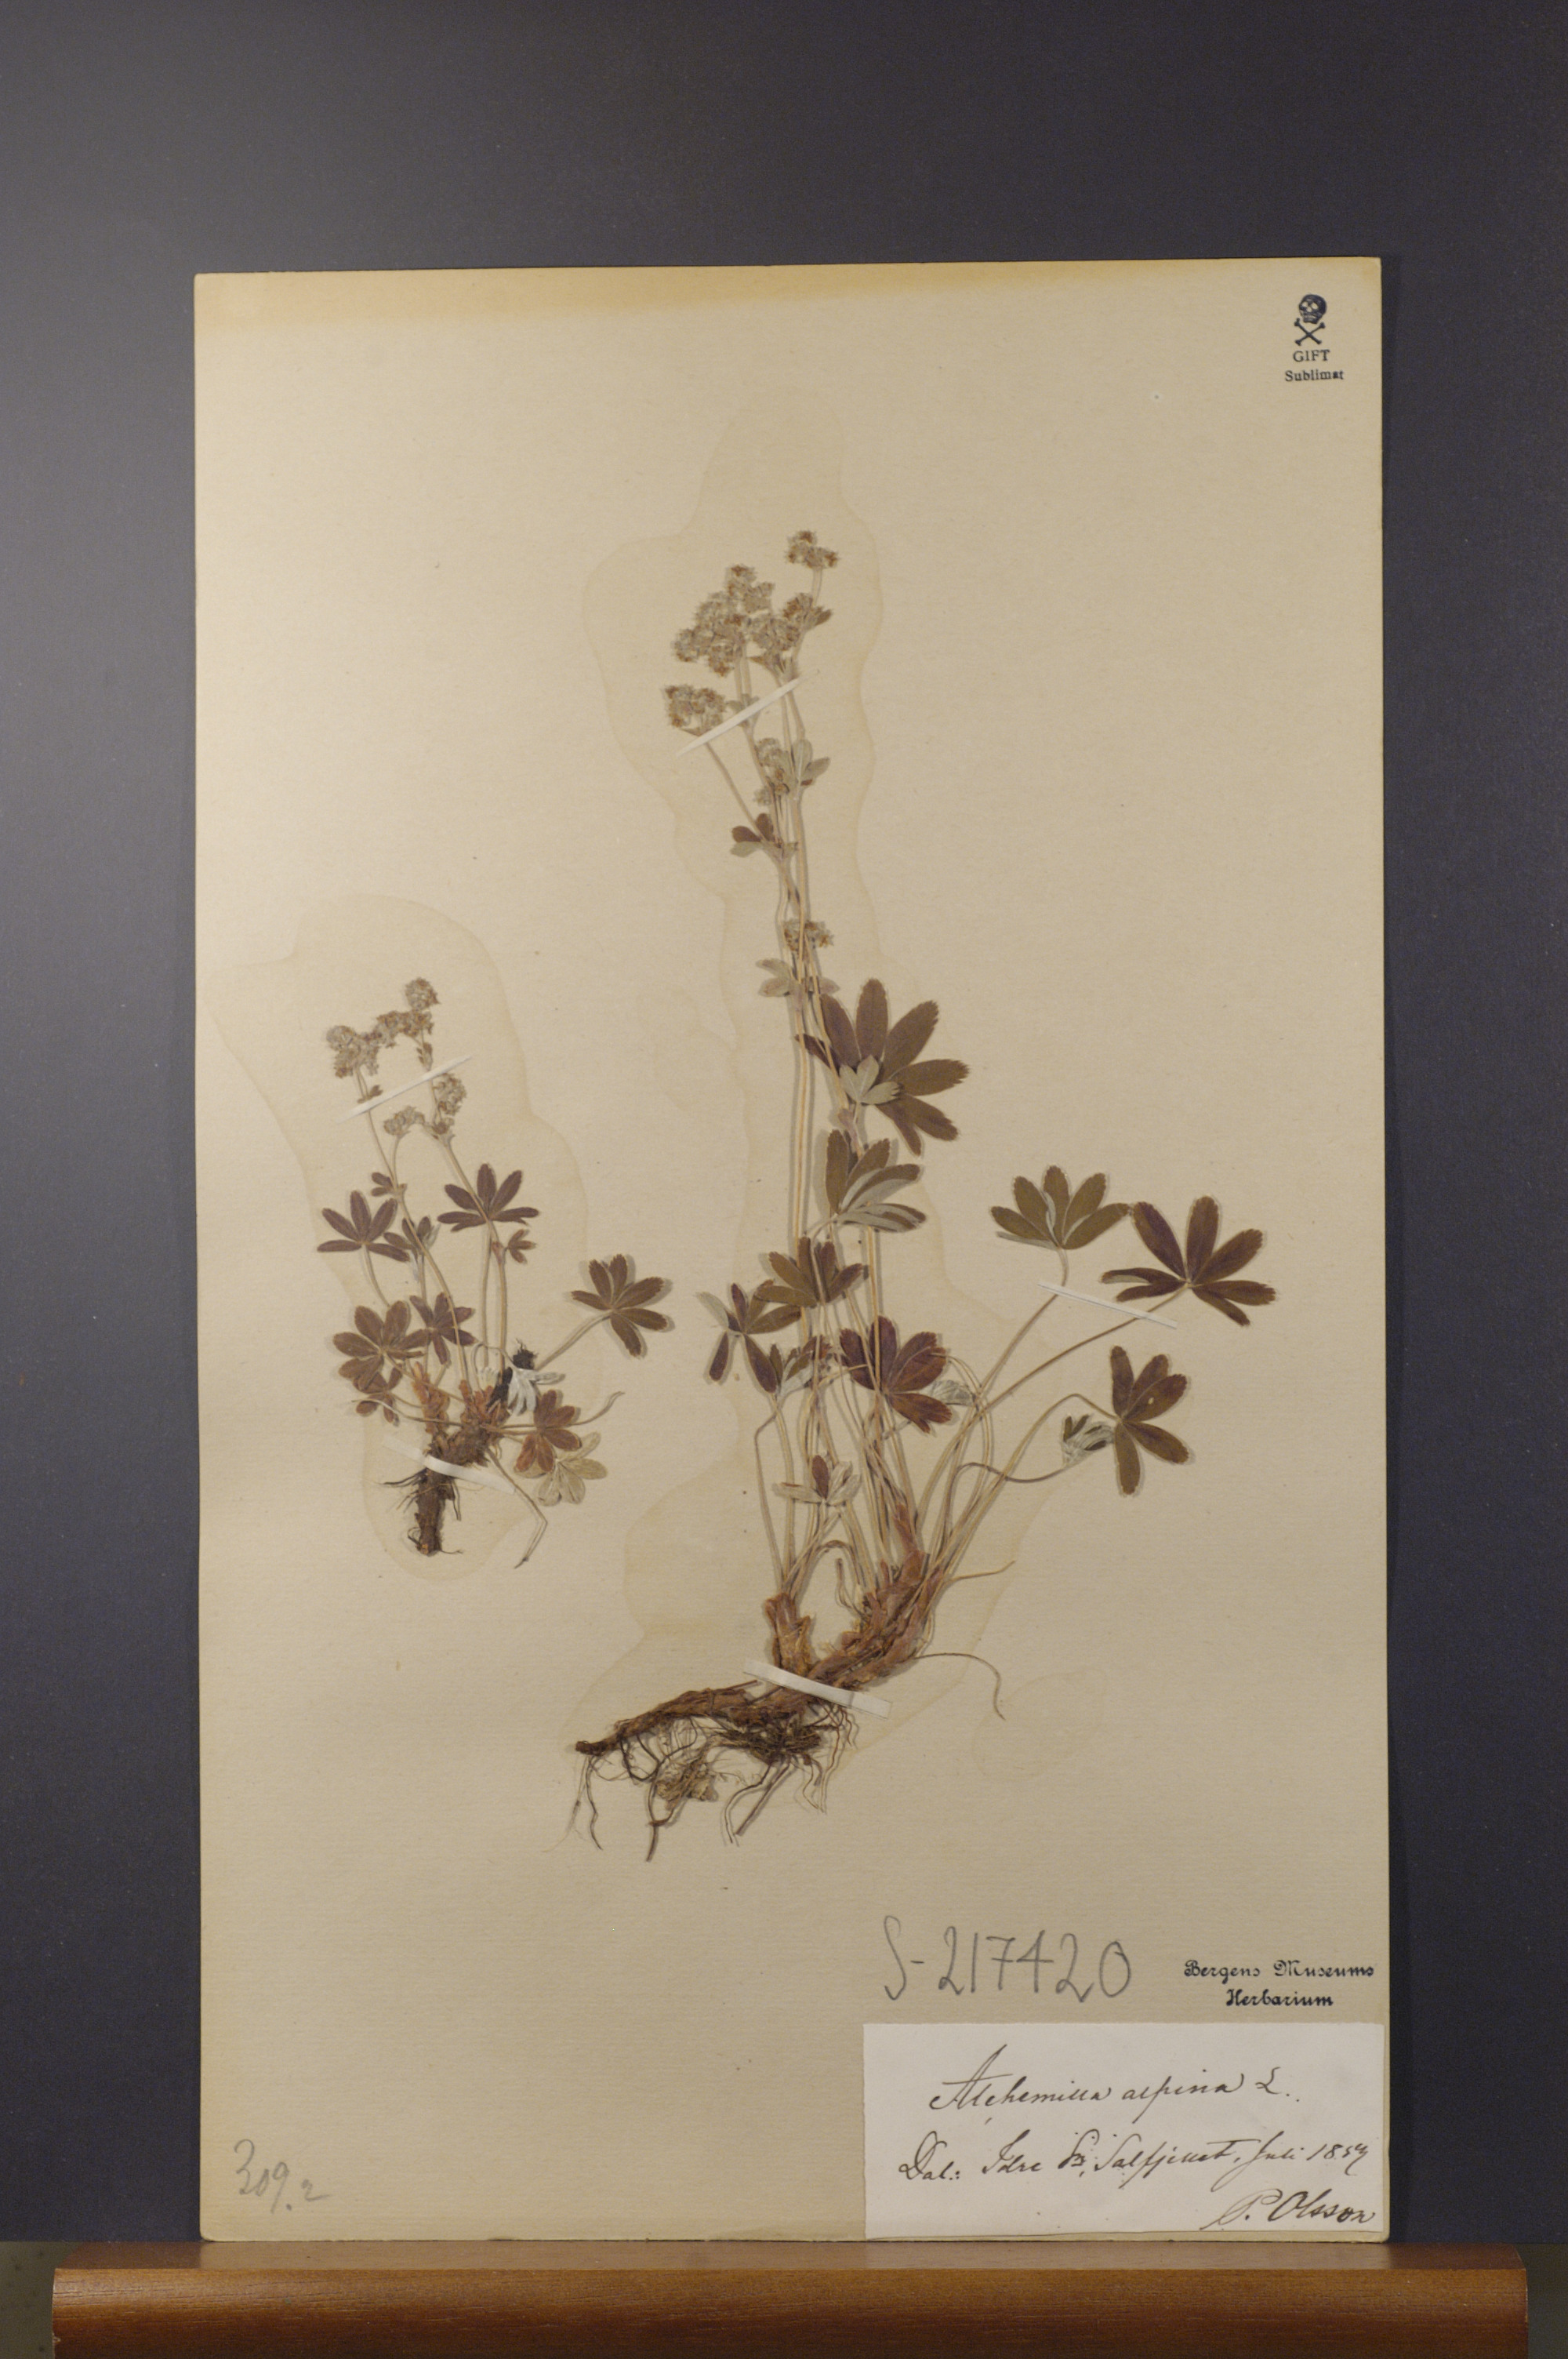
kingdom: Plantae
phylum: Tracheophyta
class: Magnoliopsida
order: Rosales
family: Rosaceae
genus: Alchemilla
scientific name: Alchemilla alpina
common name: Alpine lady's-mantle
